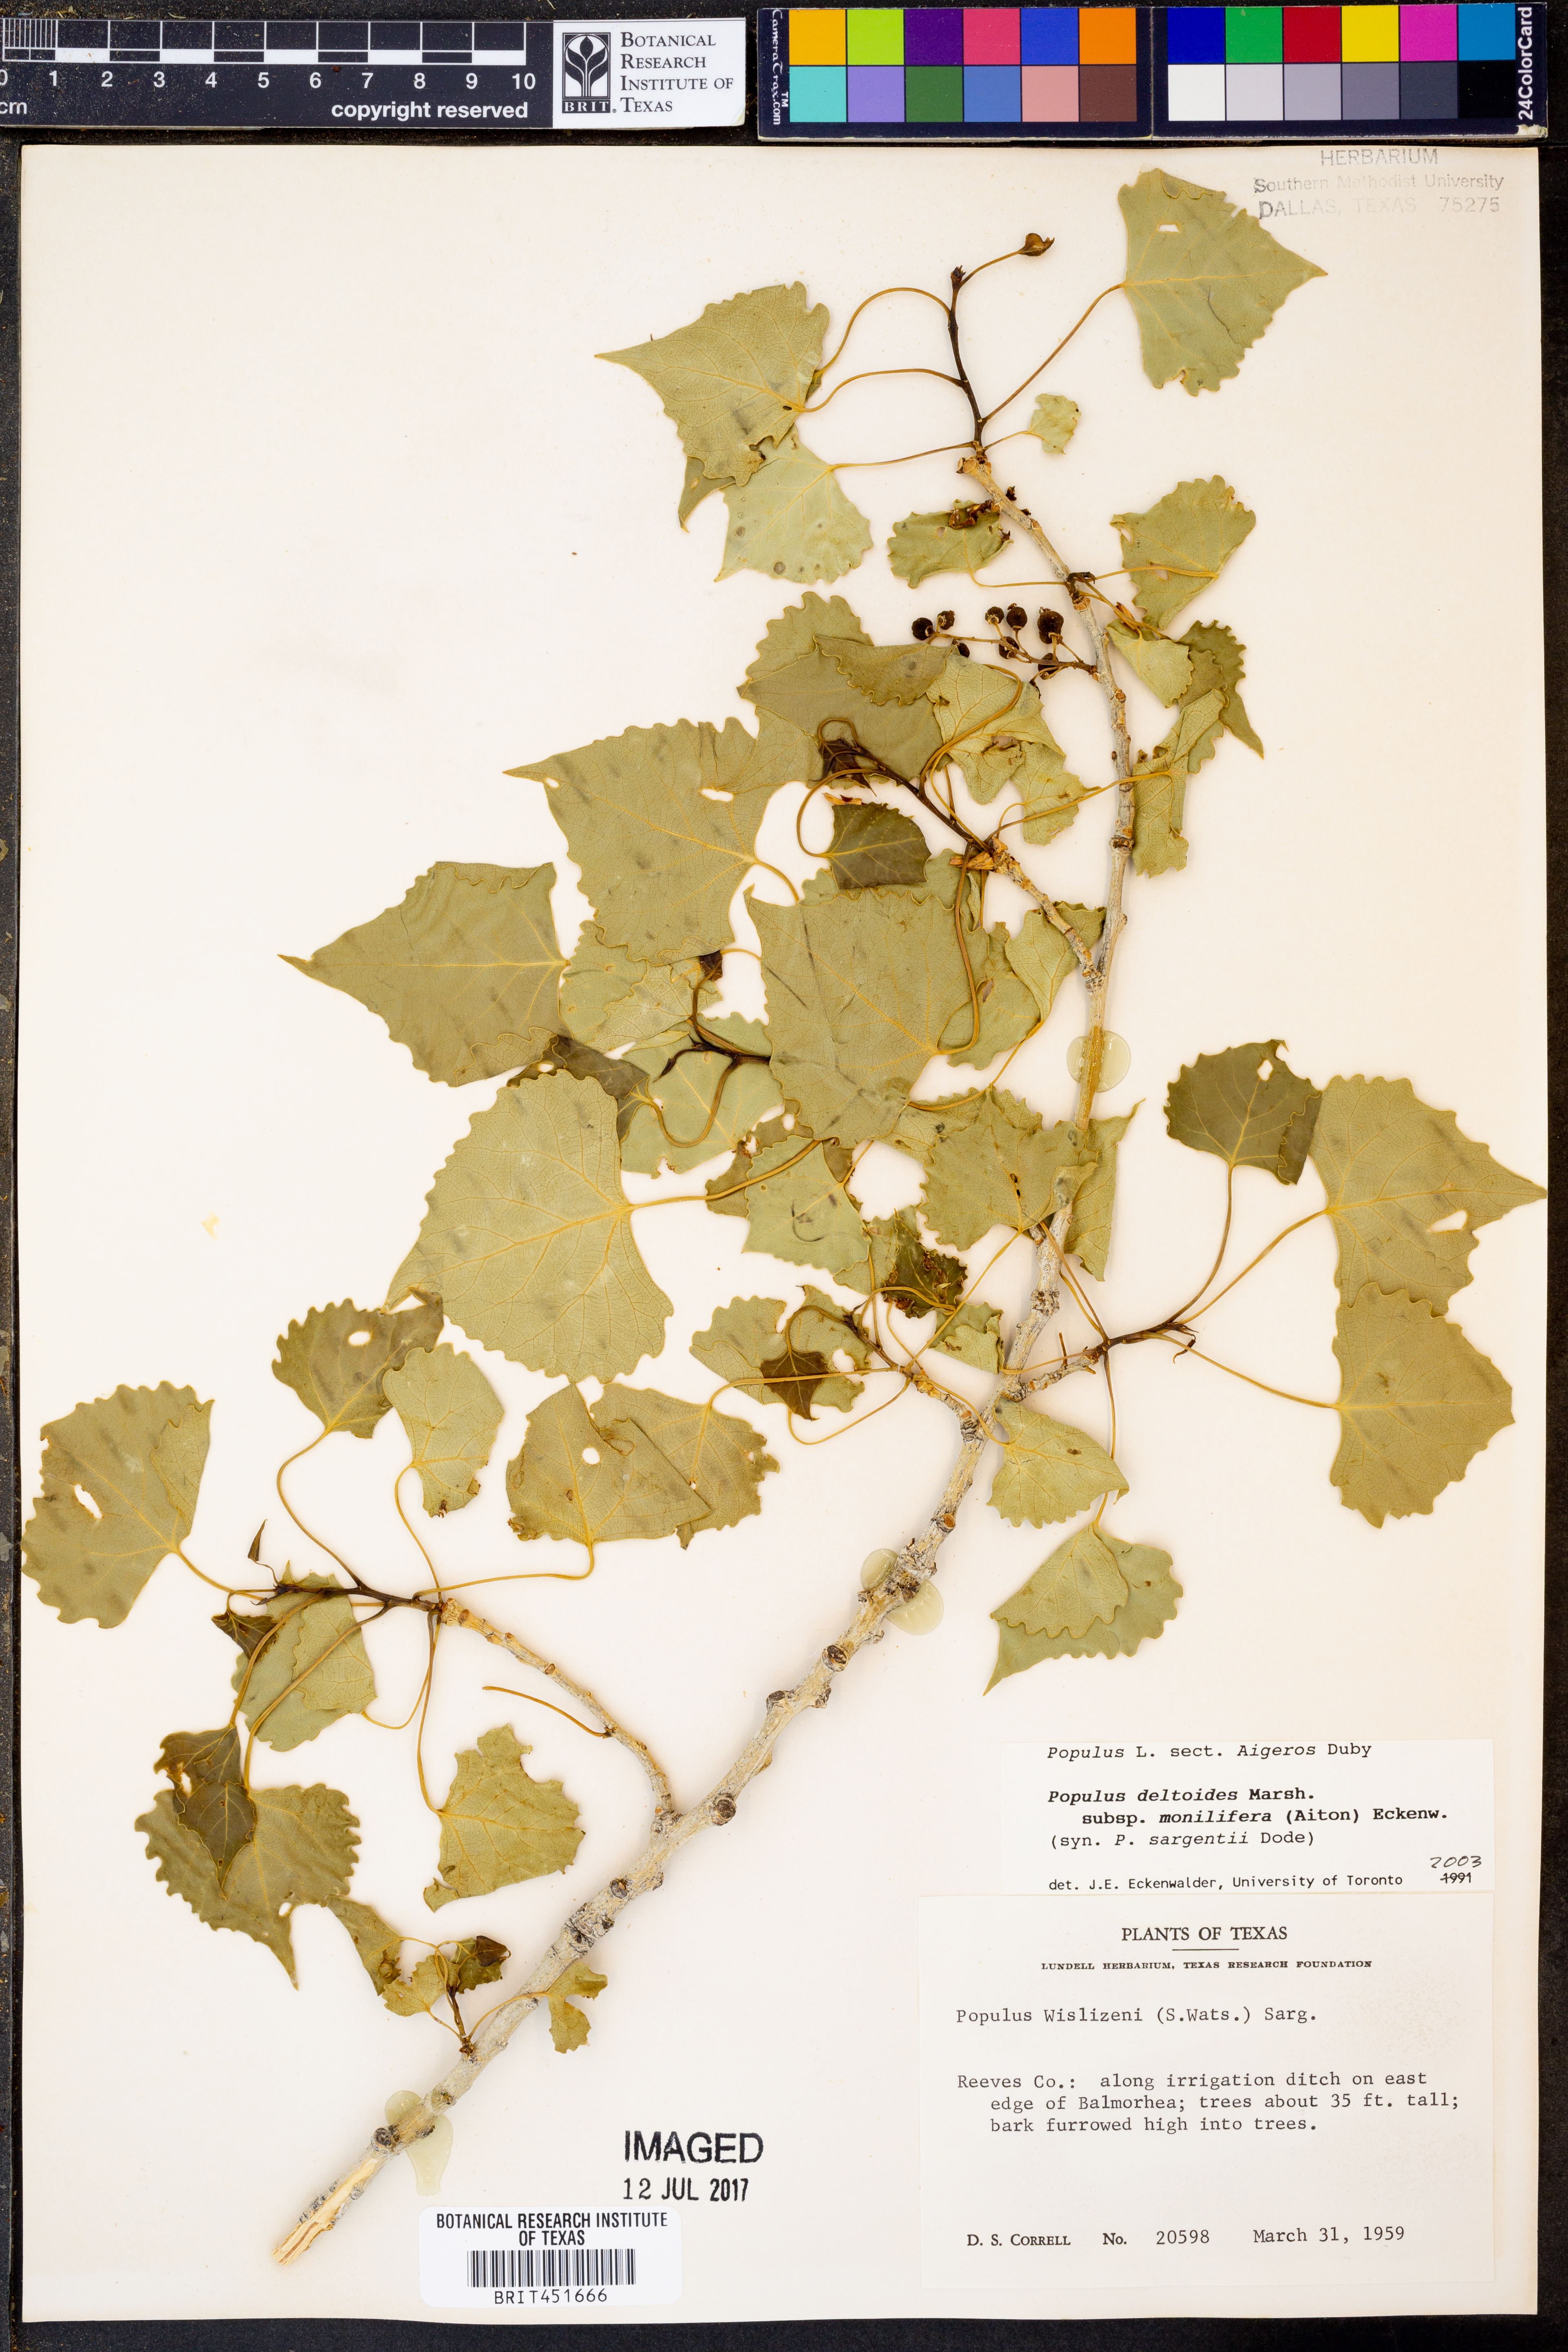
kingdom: Plantae
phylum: Tracheophyta
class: Magnoliopsida
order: Malpighiales
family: Salicaceae
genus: Populus
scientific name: Populus deltoides
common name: Eastern cottonwood
